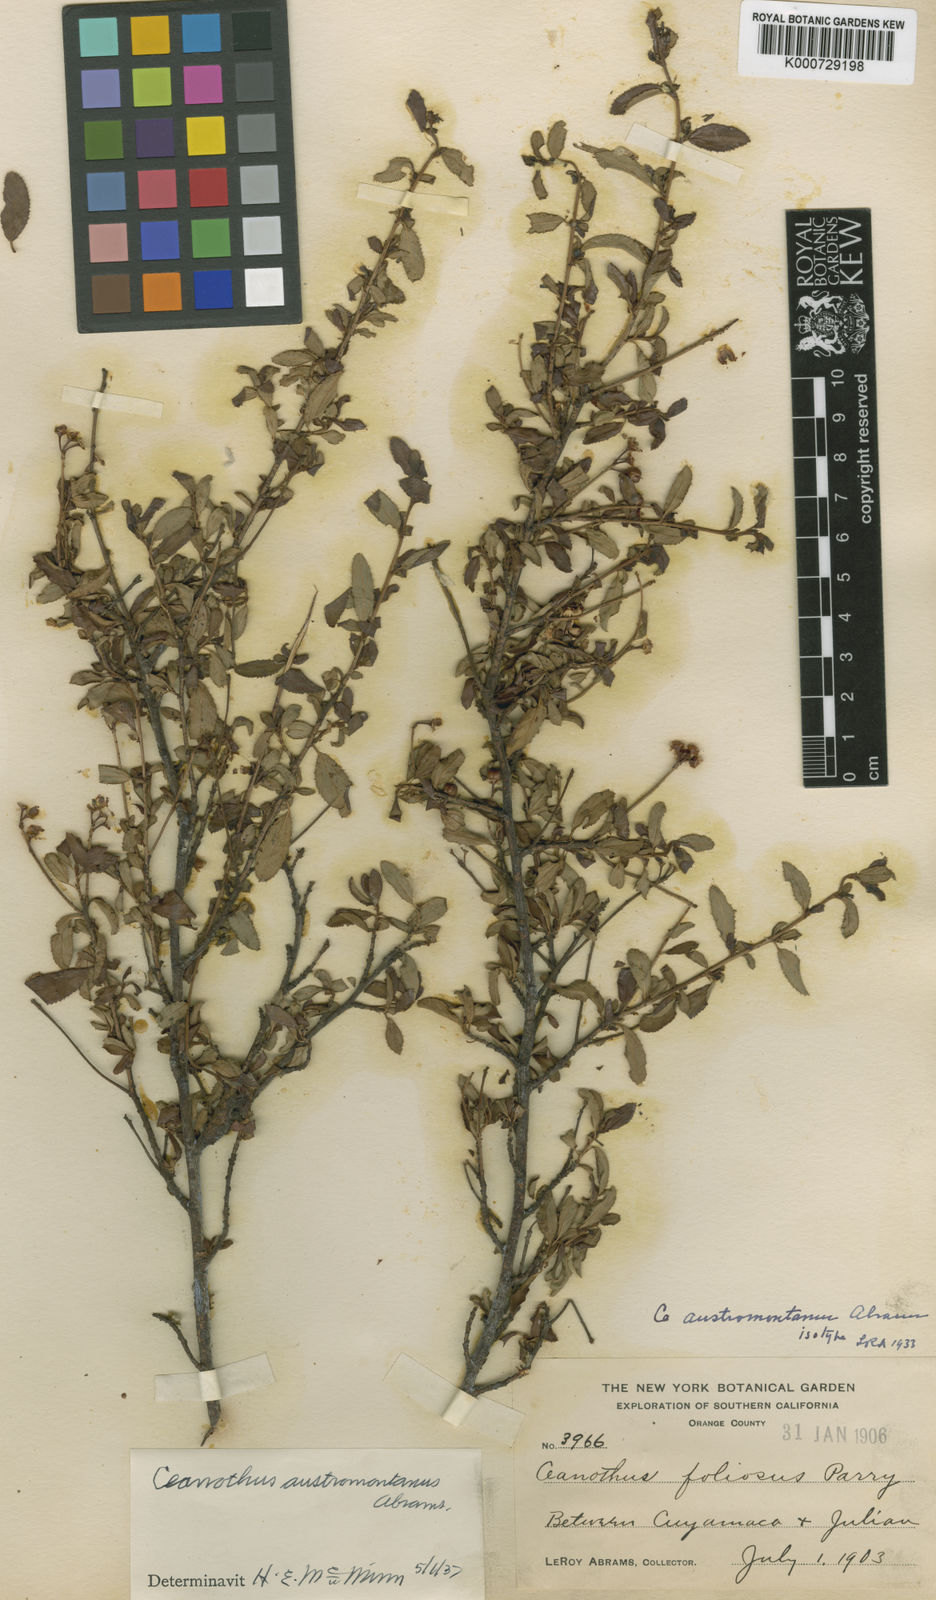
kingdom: Plantae
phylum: Tracheophyta
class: Magnoliopsida
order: Rosales
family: Rhamnaceae
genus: Ceanothus
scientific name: Ceanothus foliosus
